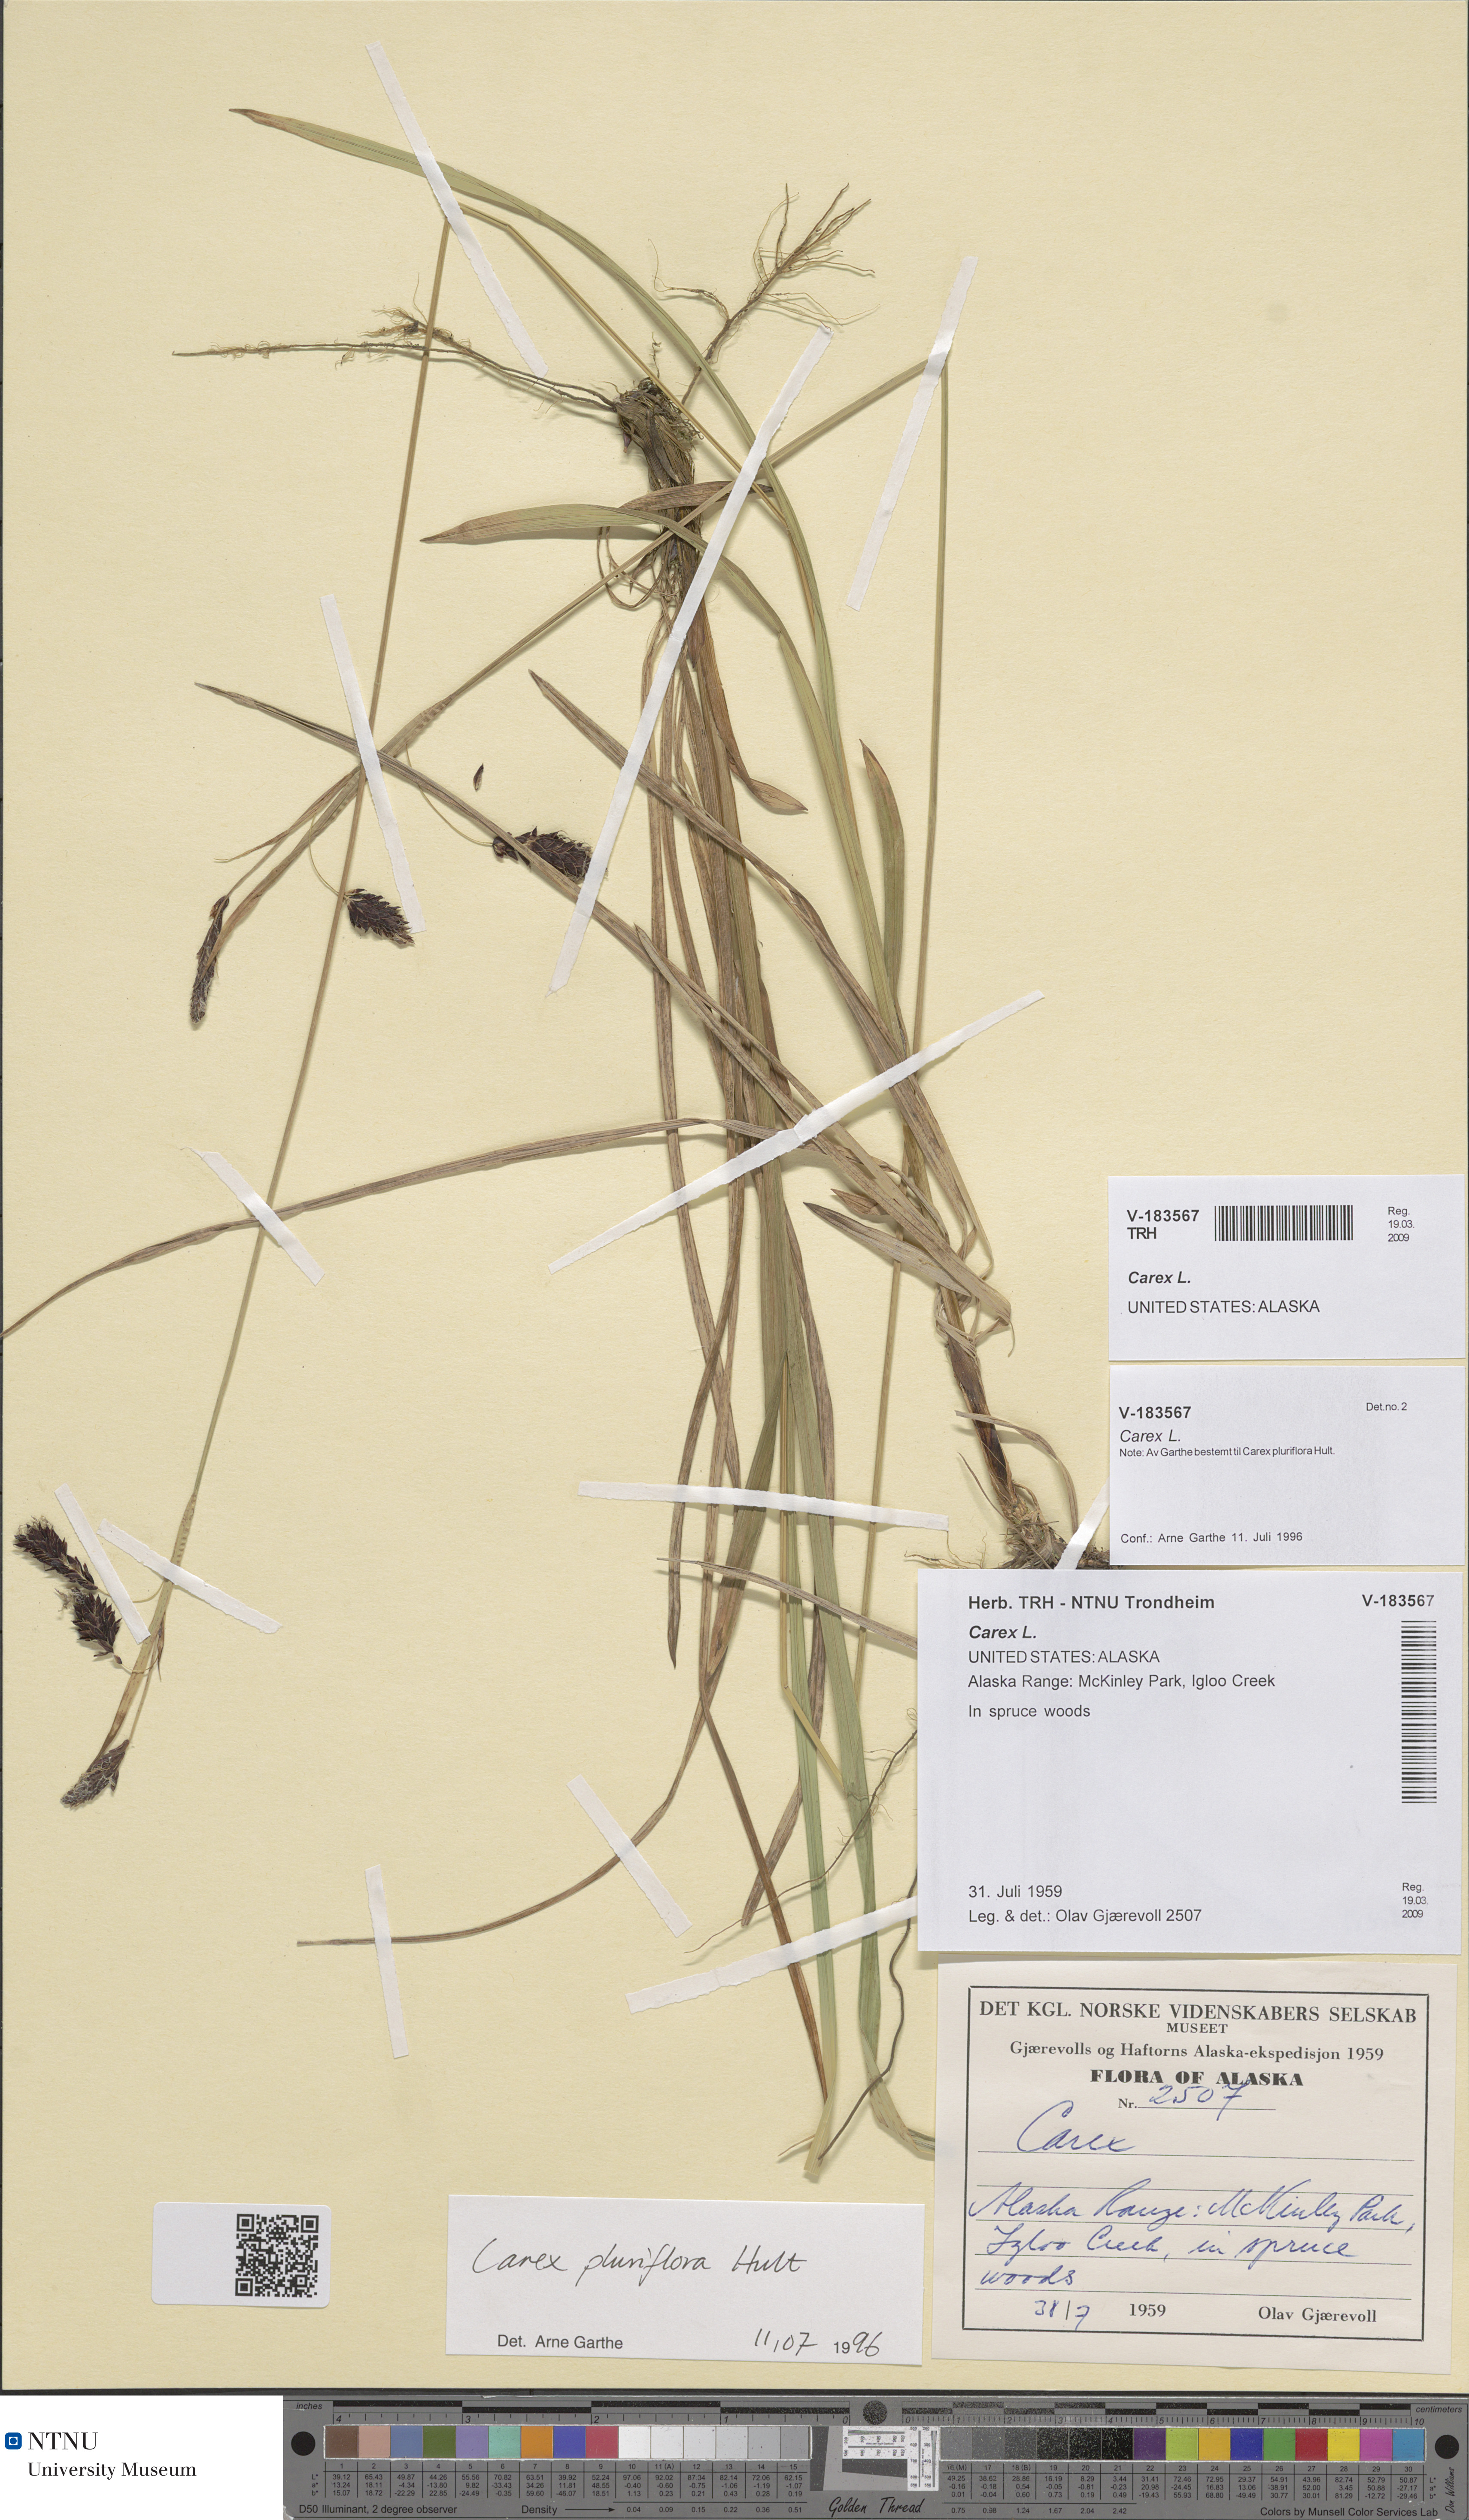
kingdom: Plantae
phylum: Tracheophyta
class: Liliopsida
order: Poales
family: Cyperaceae
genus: Carex
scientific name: Carex
